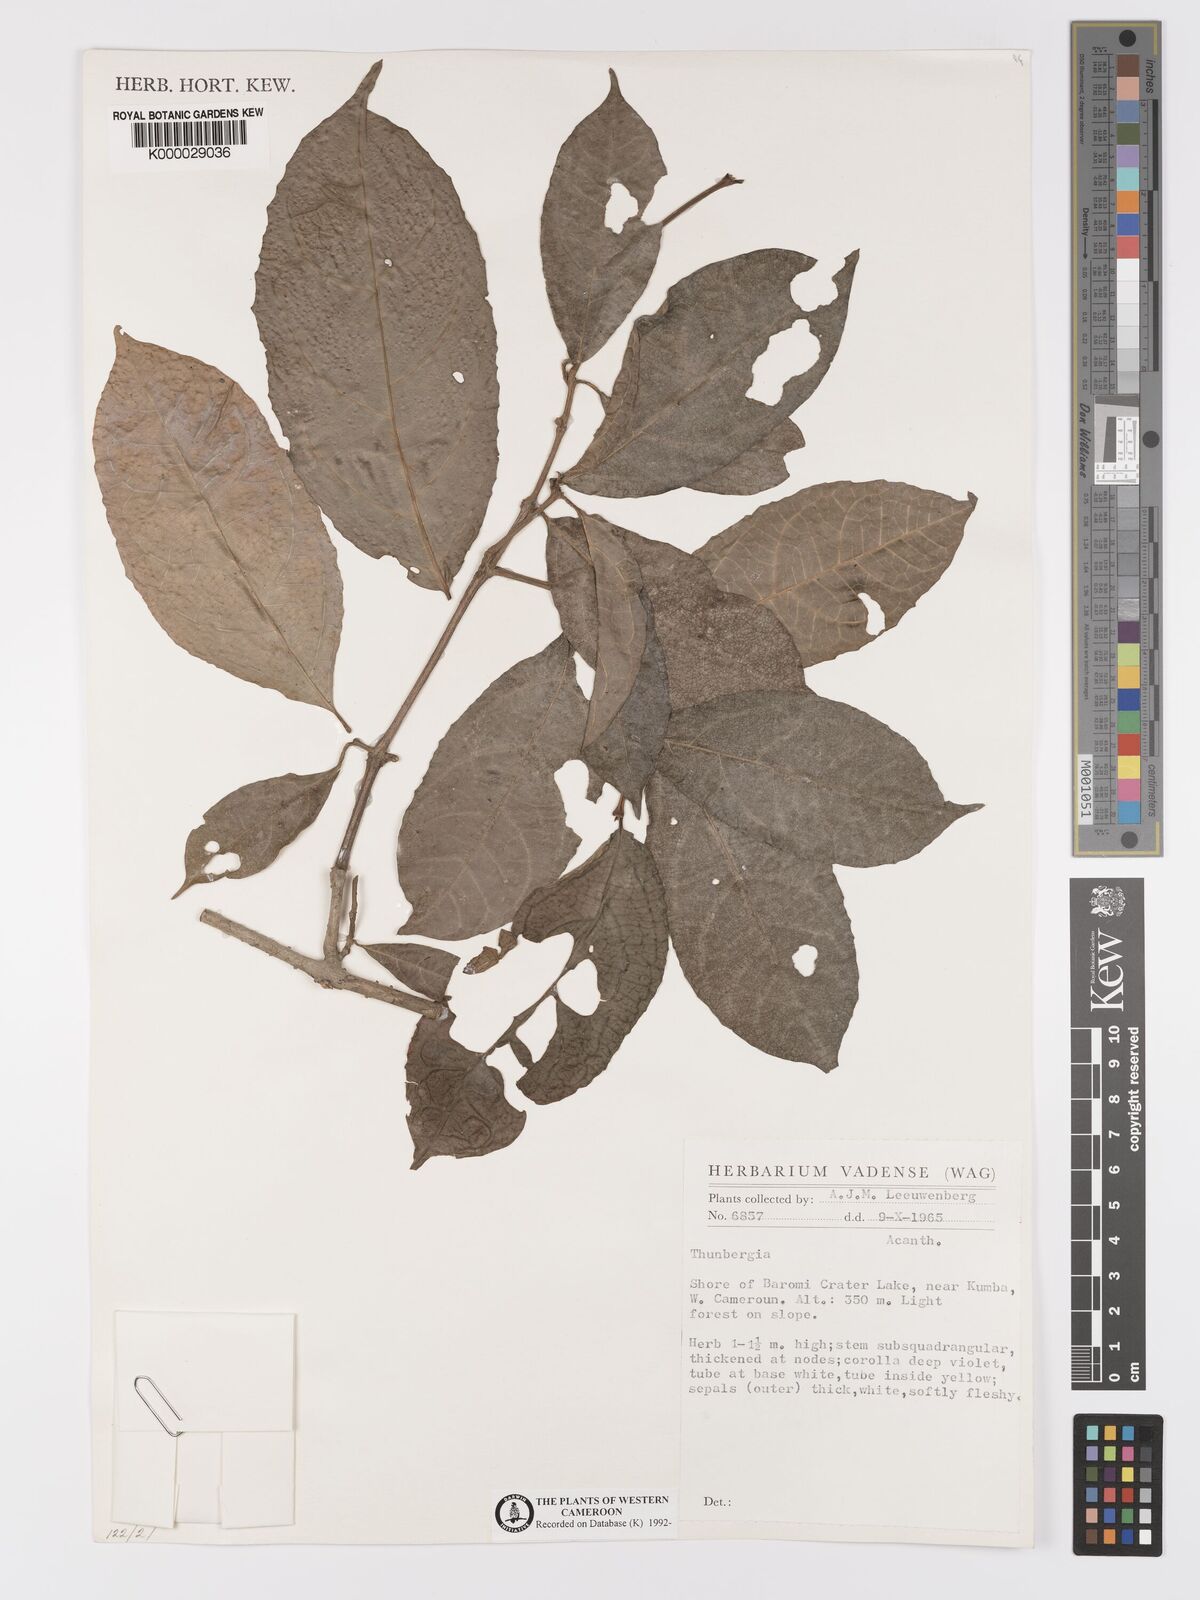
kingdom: Plantae
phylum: Tracheophyta
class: Magnoliopsida
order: Lamiales
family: Acanthaceae
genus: Thunbergia
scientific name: Thunbergia
